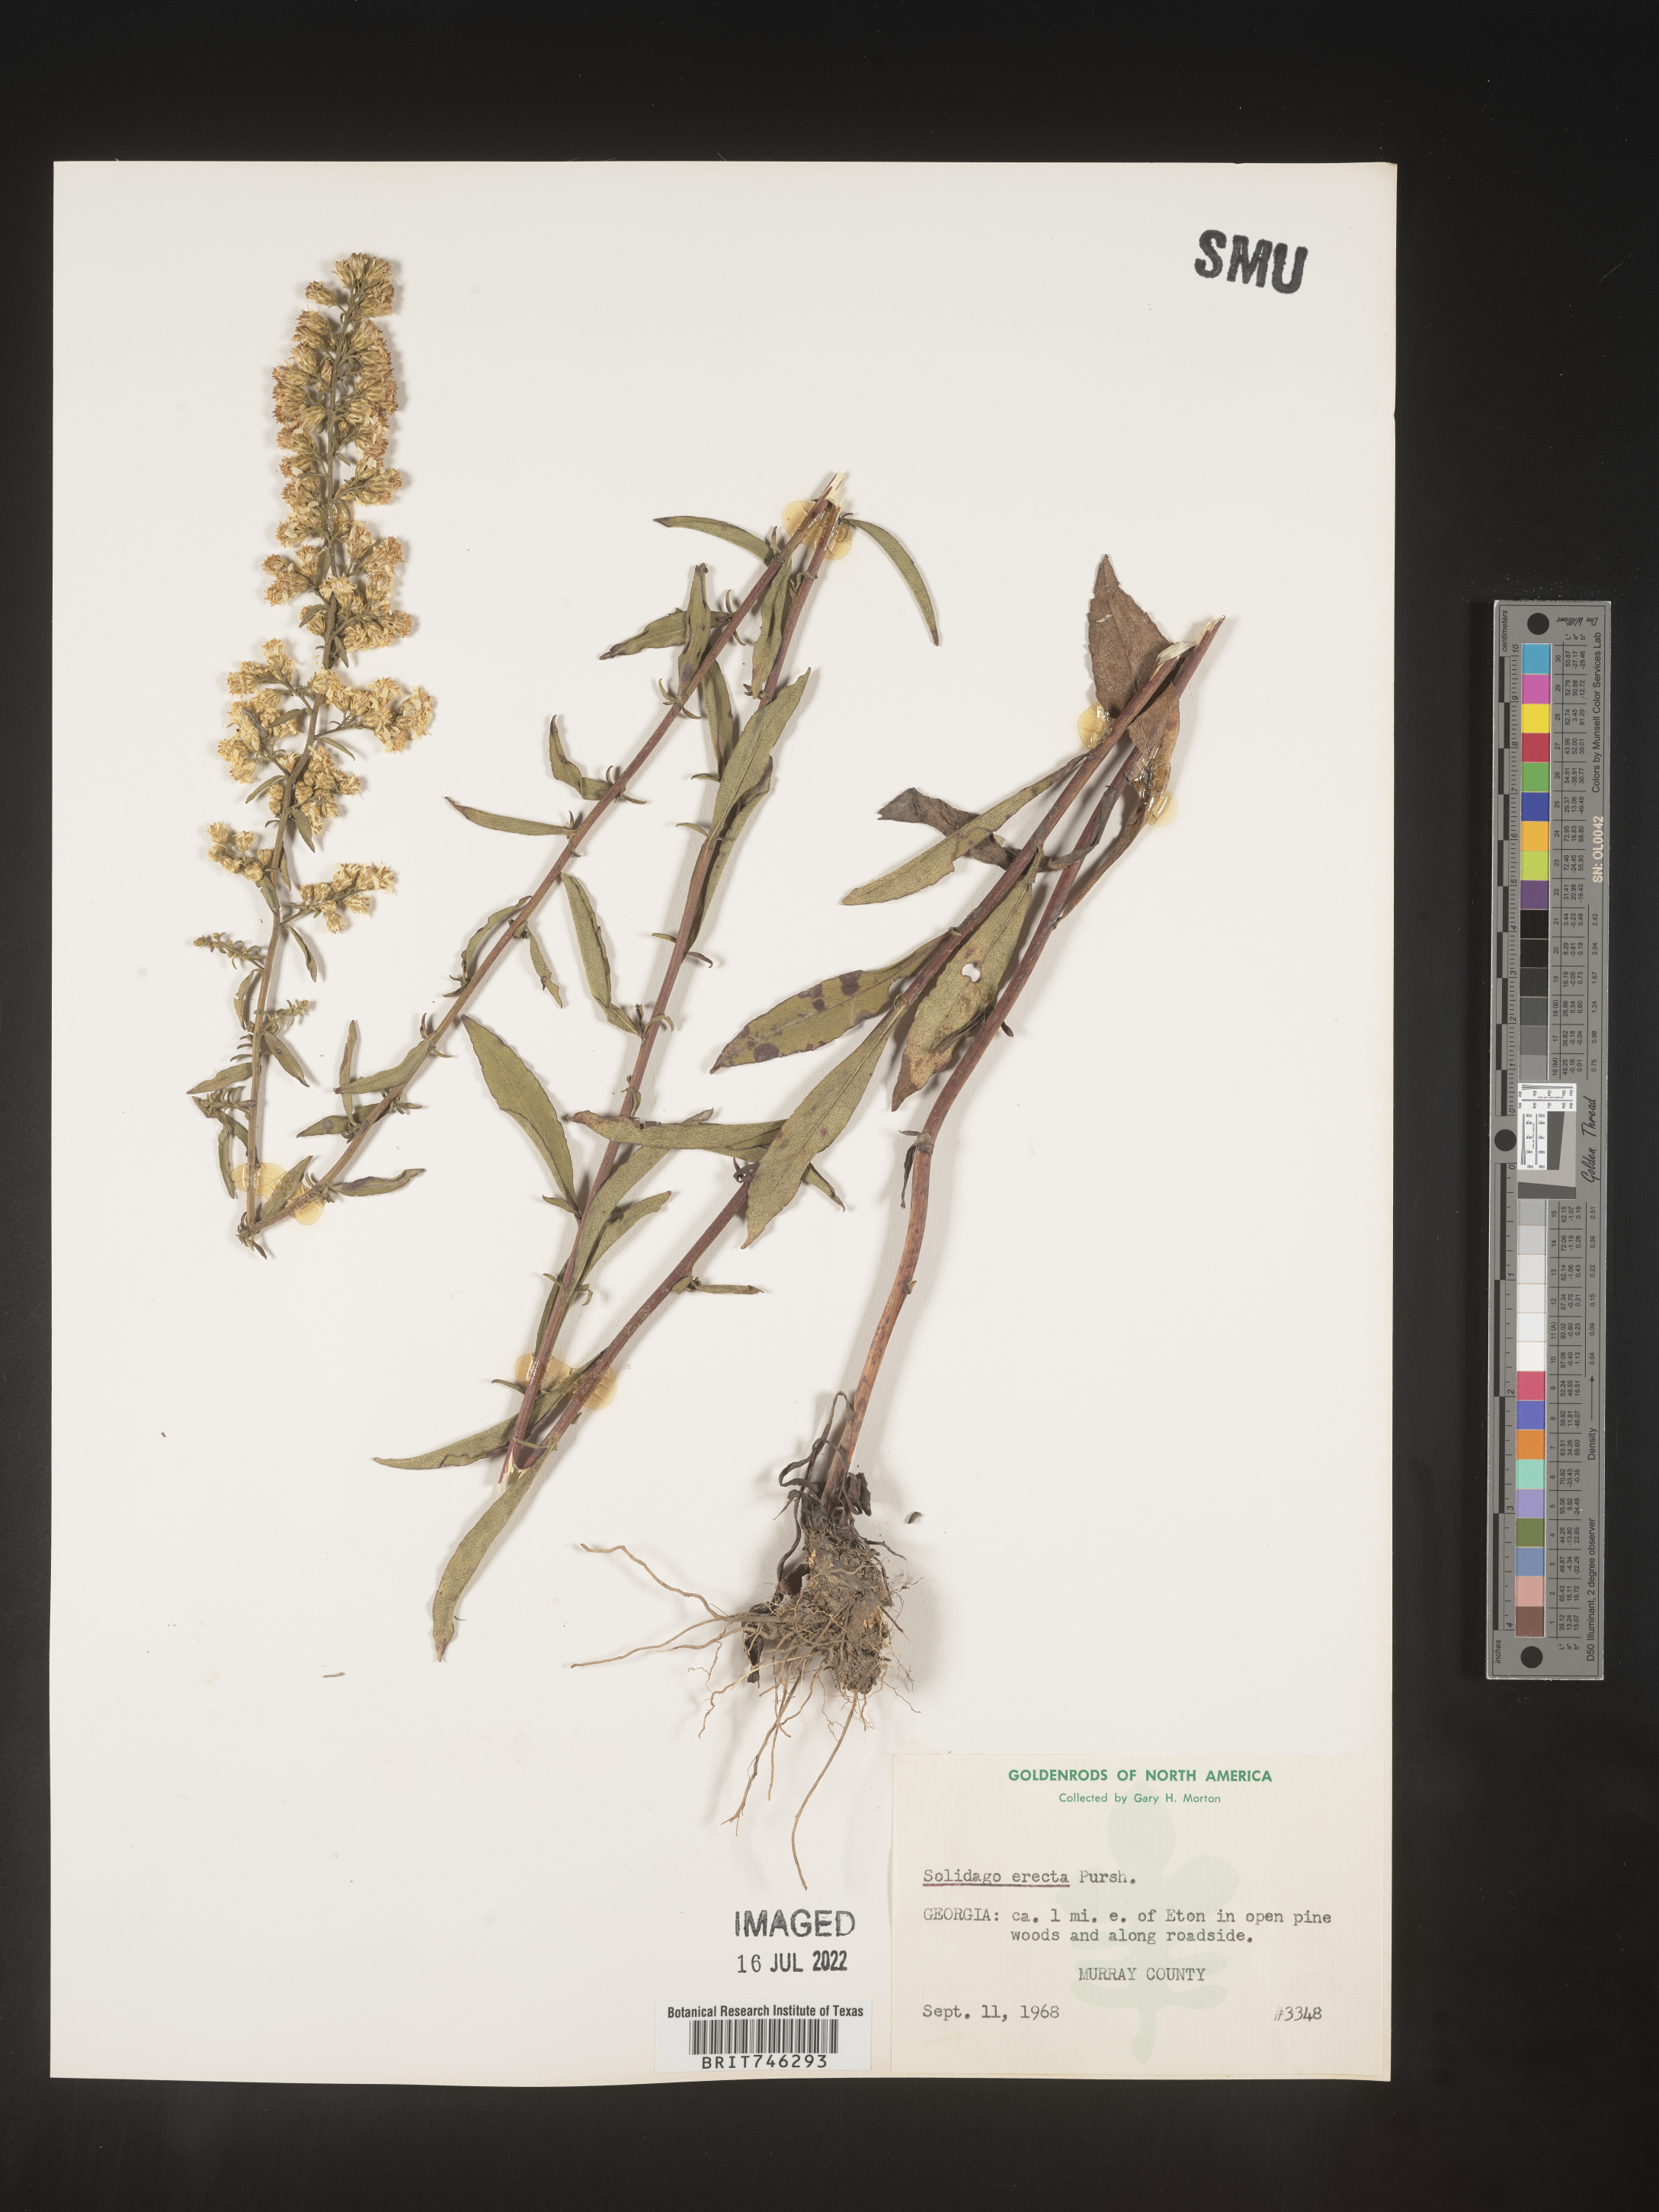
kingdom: Plantae
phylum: Tracheophyta
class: Magnoliopsida
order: Asterales
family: Asteraceae
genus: Solidago
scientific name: Solidago erecta
